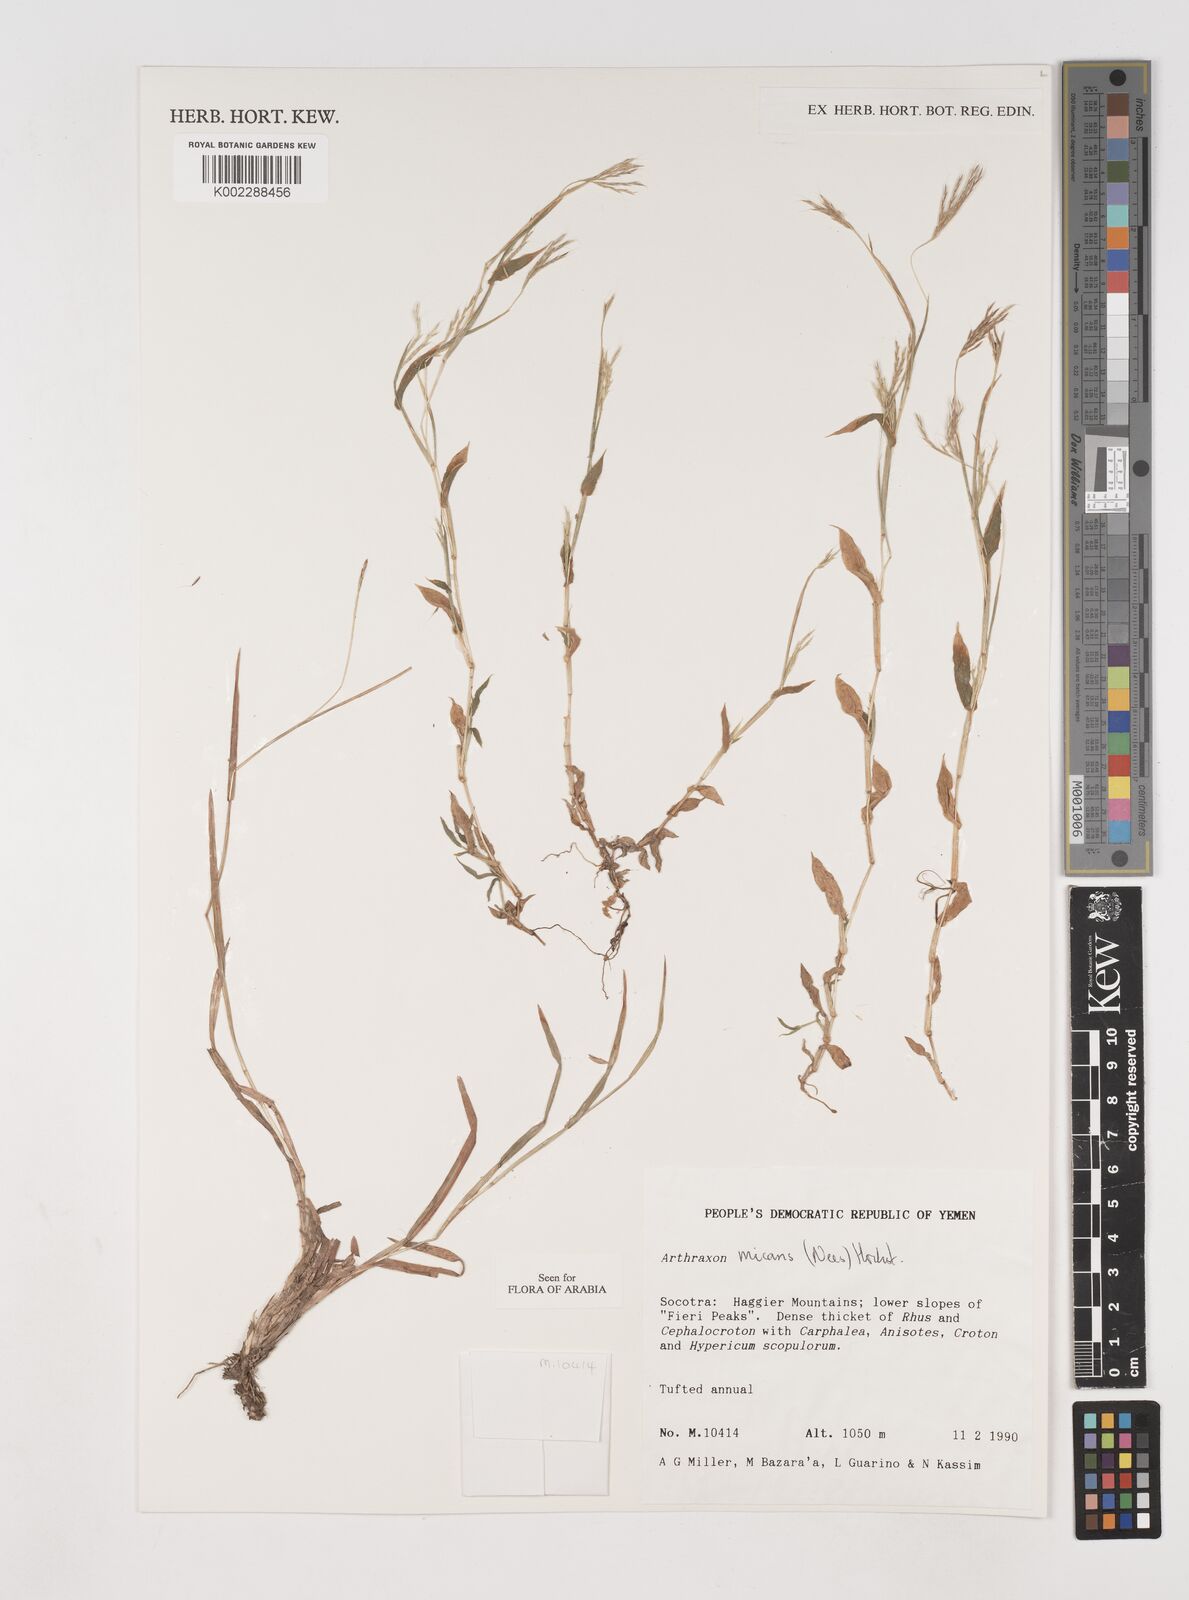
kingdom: Plantae
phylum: Tracheophyta
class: Liliopsida
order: Poales
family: Poaceae
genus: Arthraxon
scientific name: Arthraxon hispidus
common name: Small carpgrass
